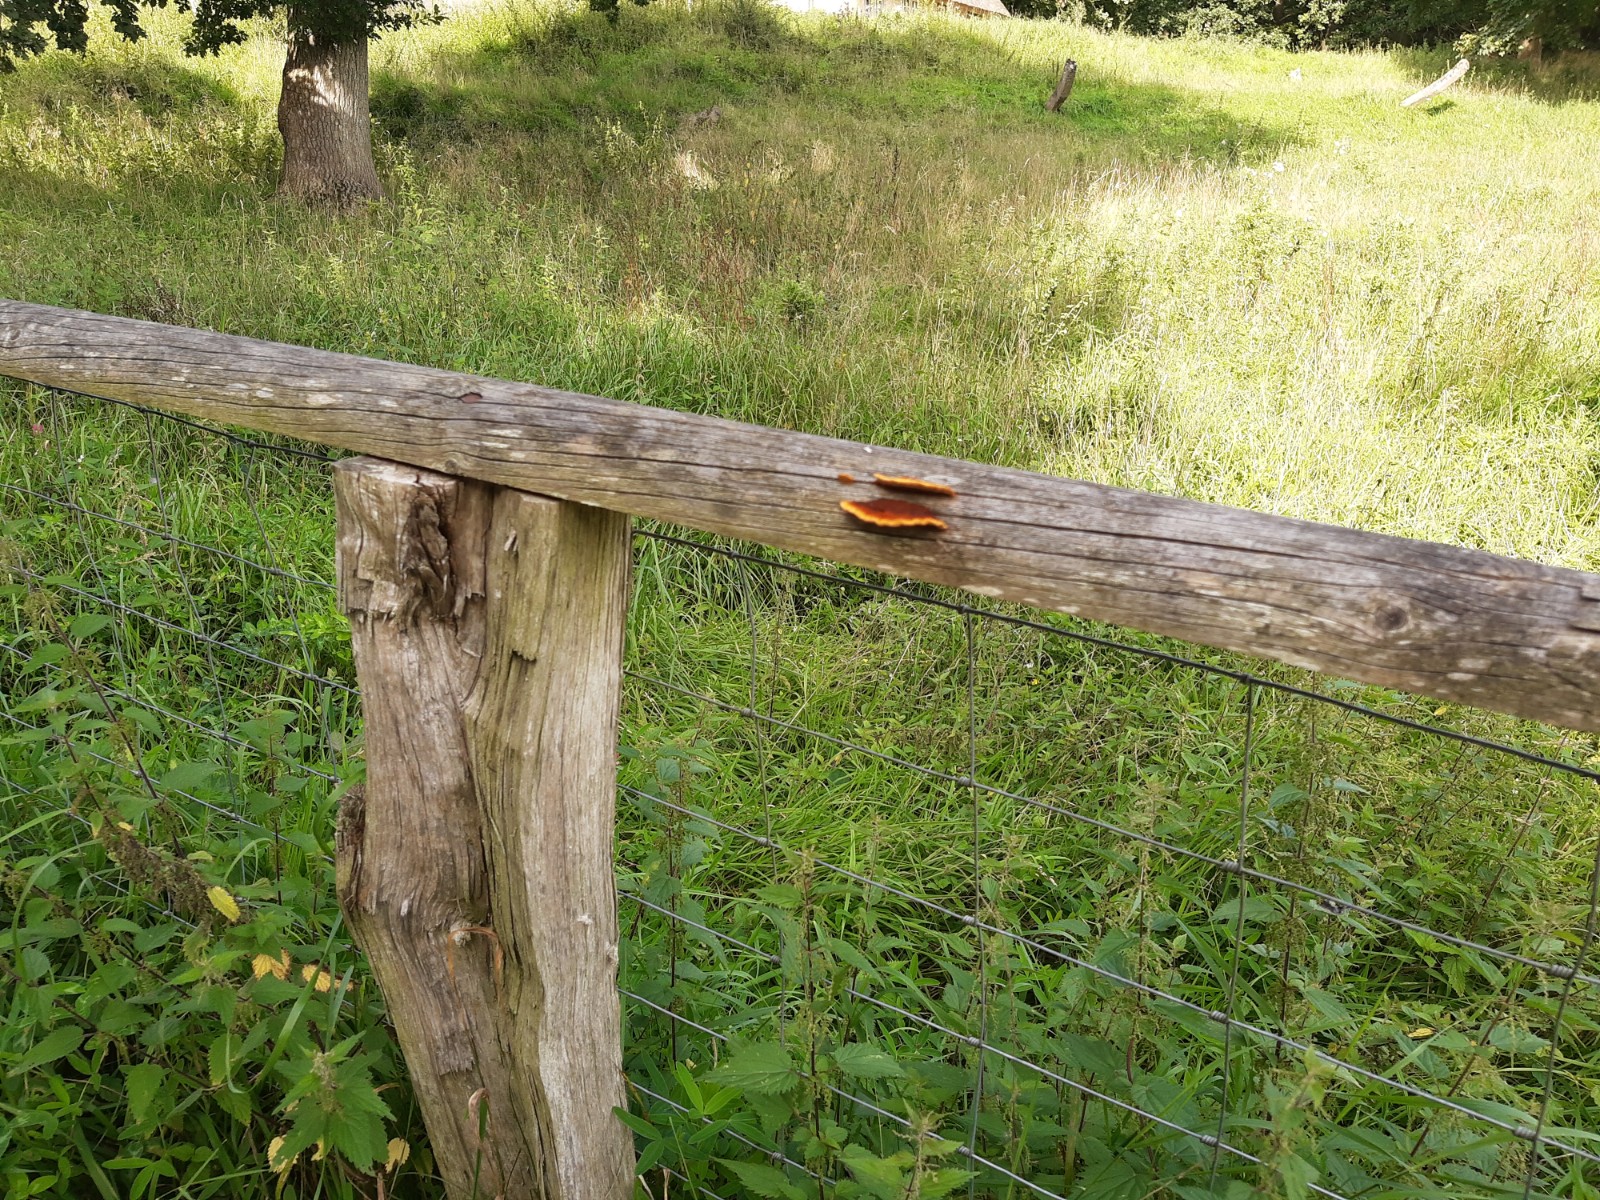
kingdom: Fungi
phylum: Basidiomycota
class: Agaricomycetes
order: Gloeophyllales
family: Gloeophyllaceae
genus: Gloeophyllum
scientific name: Gloeophyllum sepiarium
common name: fyrre-korkhat
